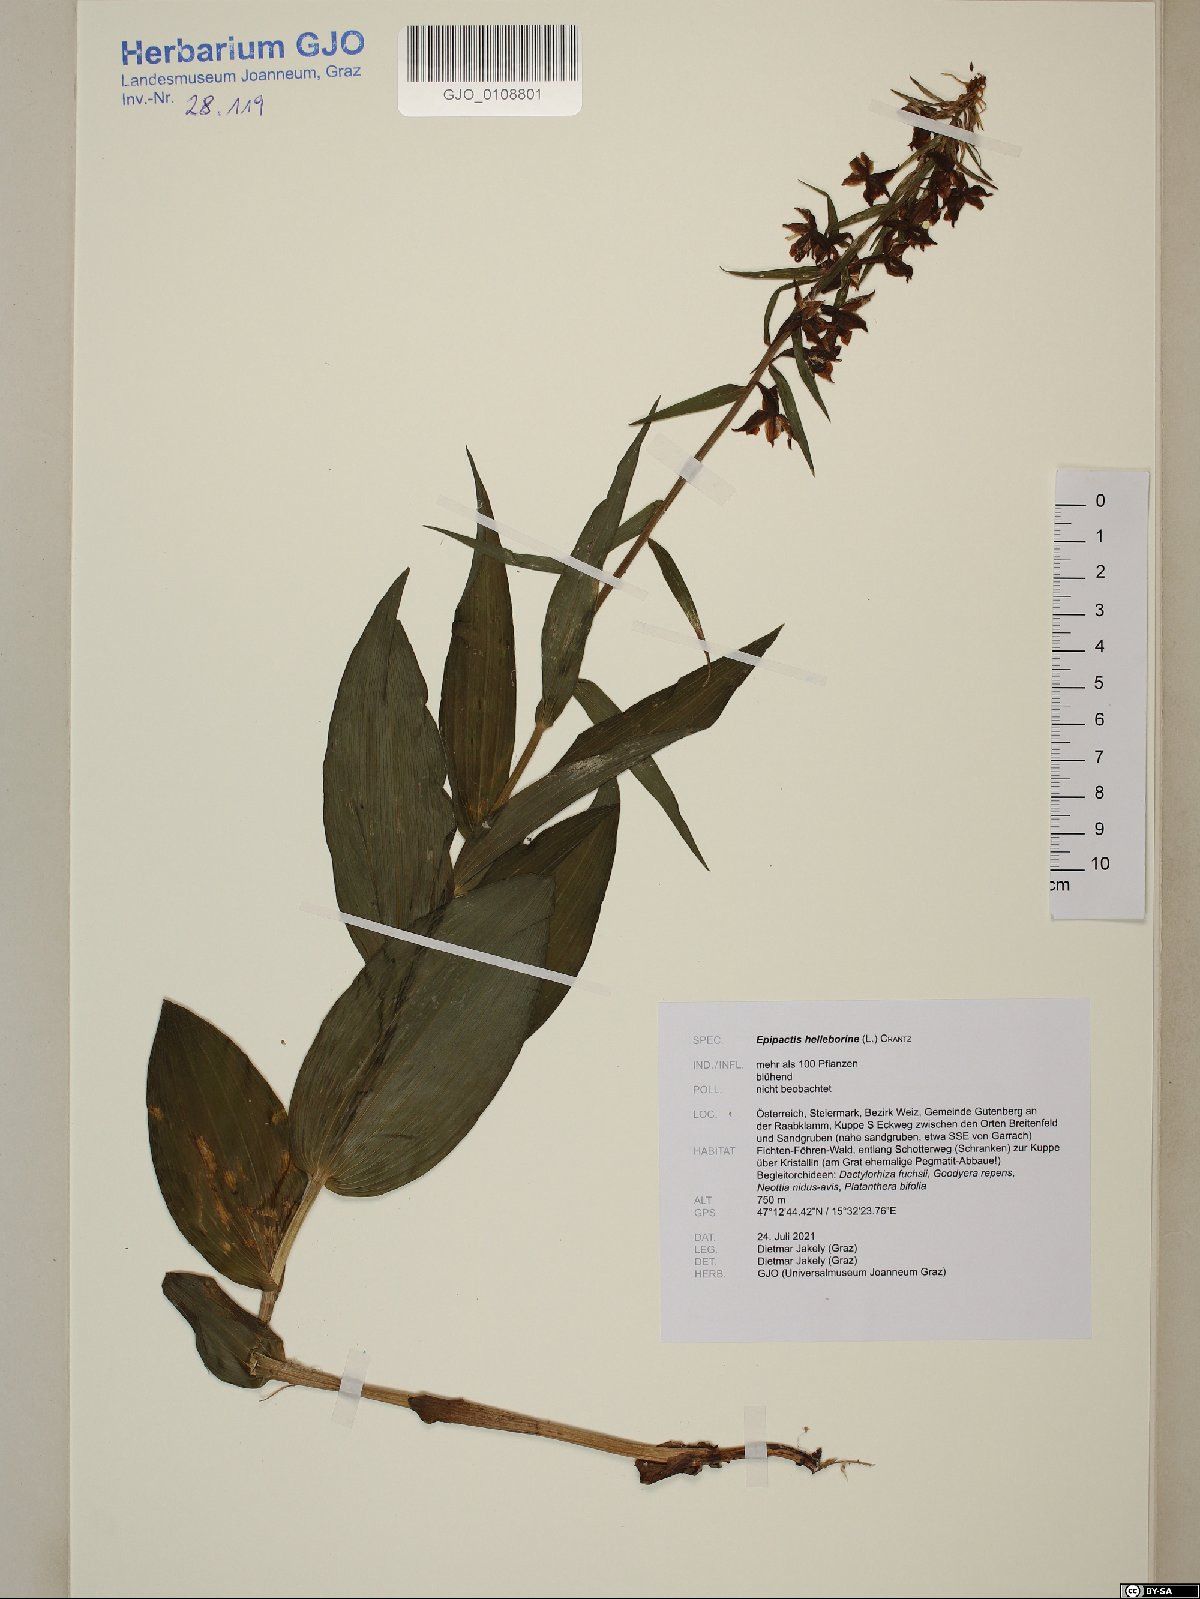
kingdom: Plantae
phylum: Tracheophyta
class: Liliopsida
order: Asparagales
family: Orchidaceae
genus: Epipactis
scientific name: Epipactis helleborine
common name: Broad-leaved helleborine
